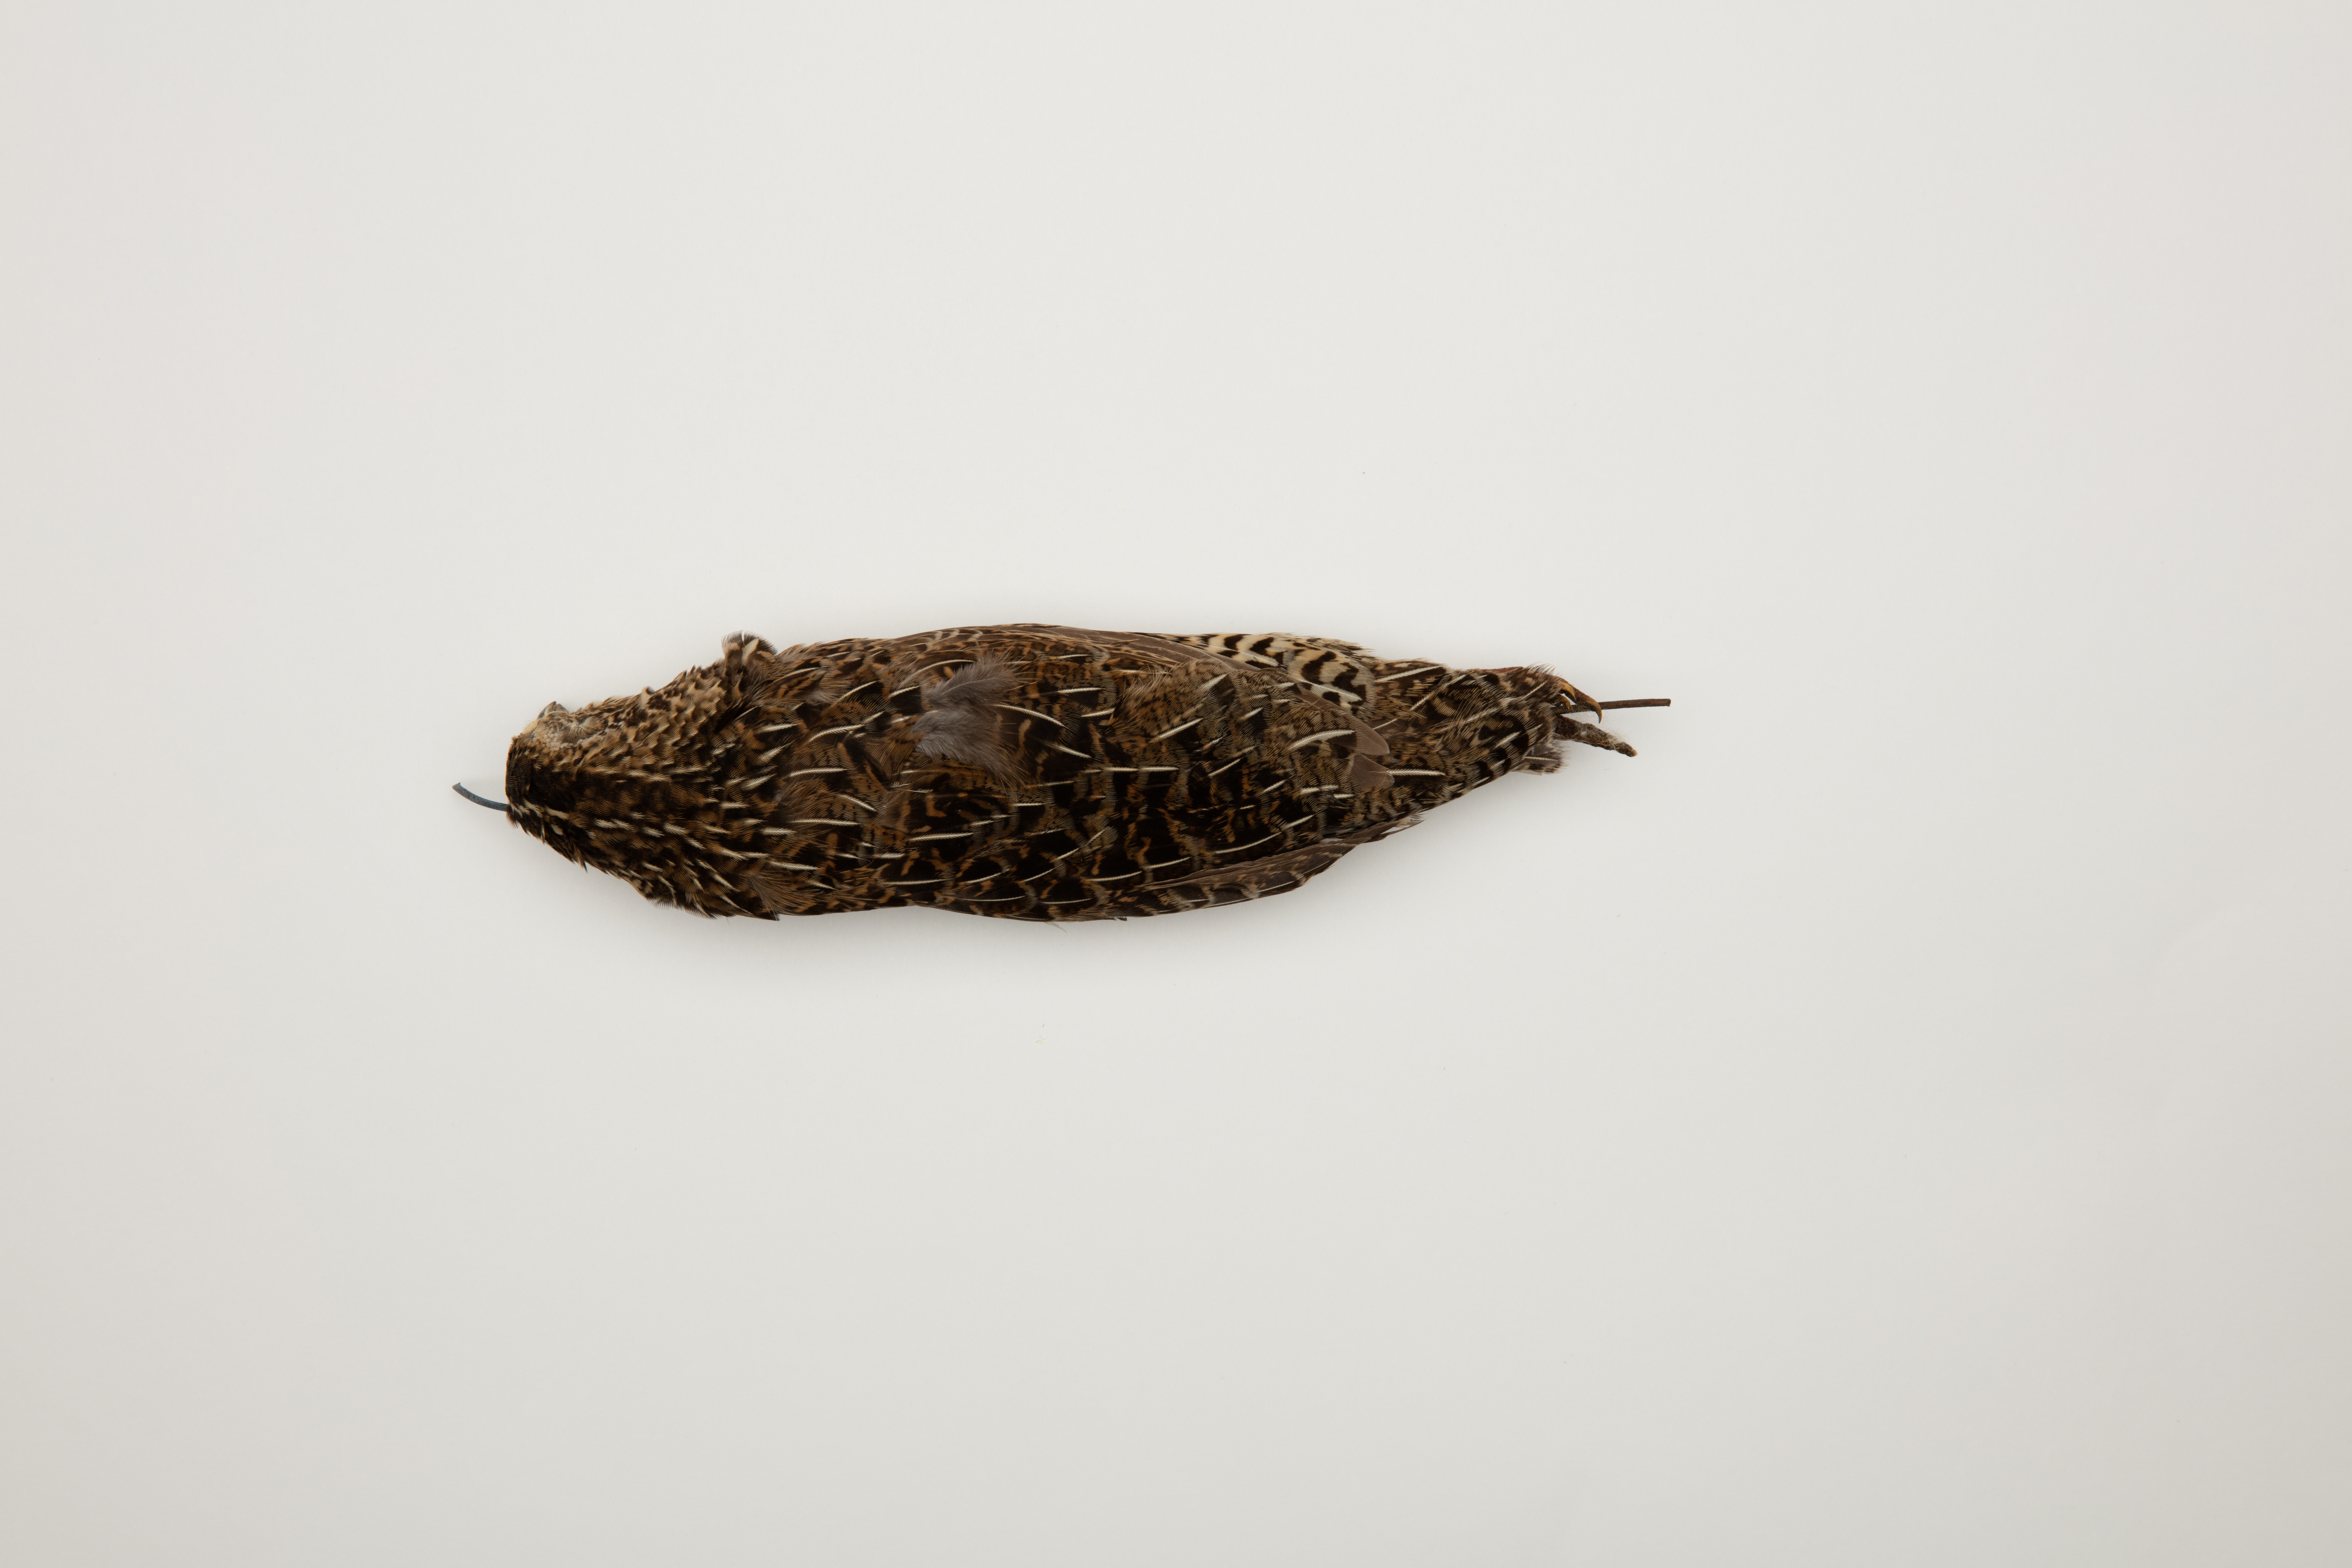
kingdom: Animalia
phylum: Chordata
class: Aves
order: Galliformes
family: Phasianidae
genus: Synoicus
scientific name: Synoicus ypsilophorus
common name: Brown quail
